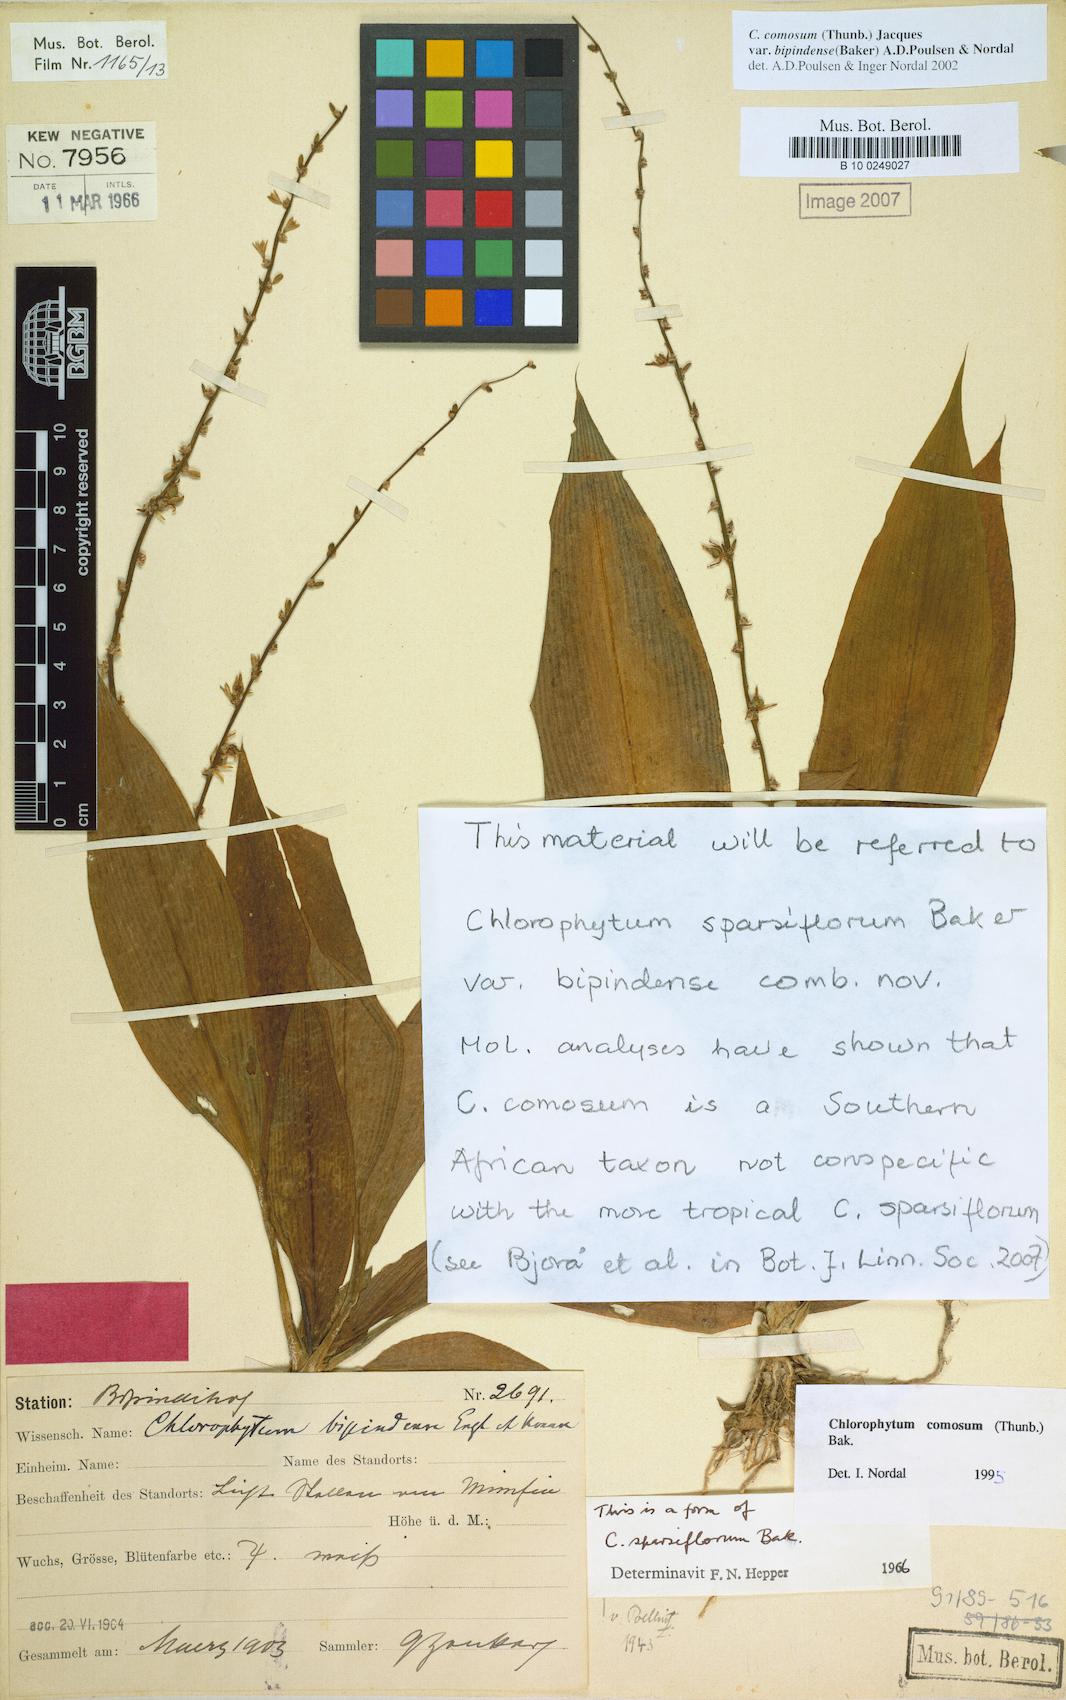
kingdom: Plantae
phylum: Tracheophyta
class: Liliopsida
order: Asparagales
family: Asparagaceae
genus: Chlorophytum
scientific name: Chlorophytum sparsiflorum
